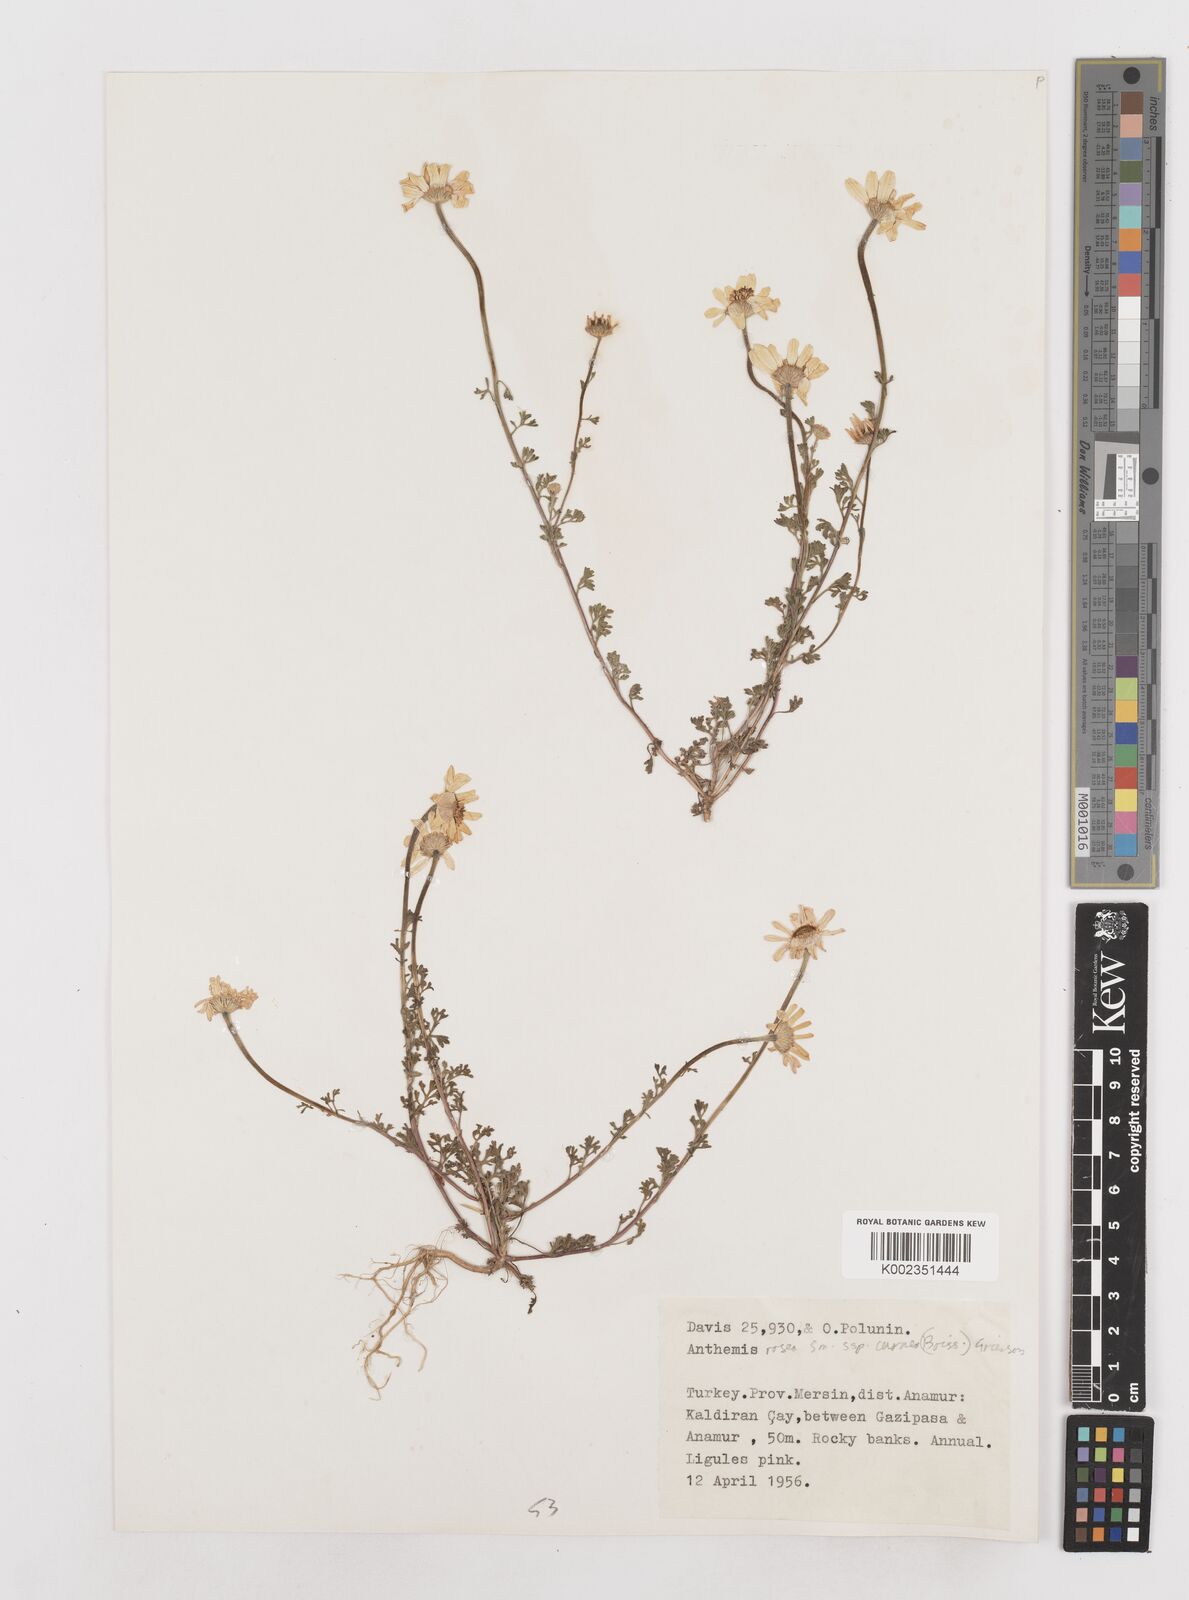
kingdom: Plantae
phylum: Tracheophyta
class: Magnoliopsida
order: Asterales
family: Asteraceae
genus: Anthemis
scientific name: Anthemis rosea
